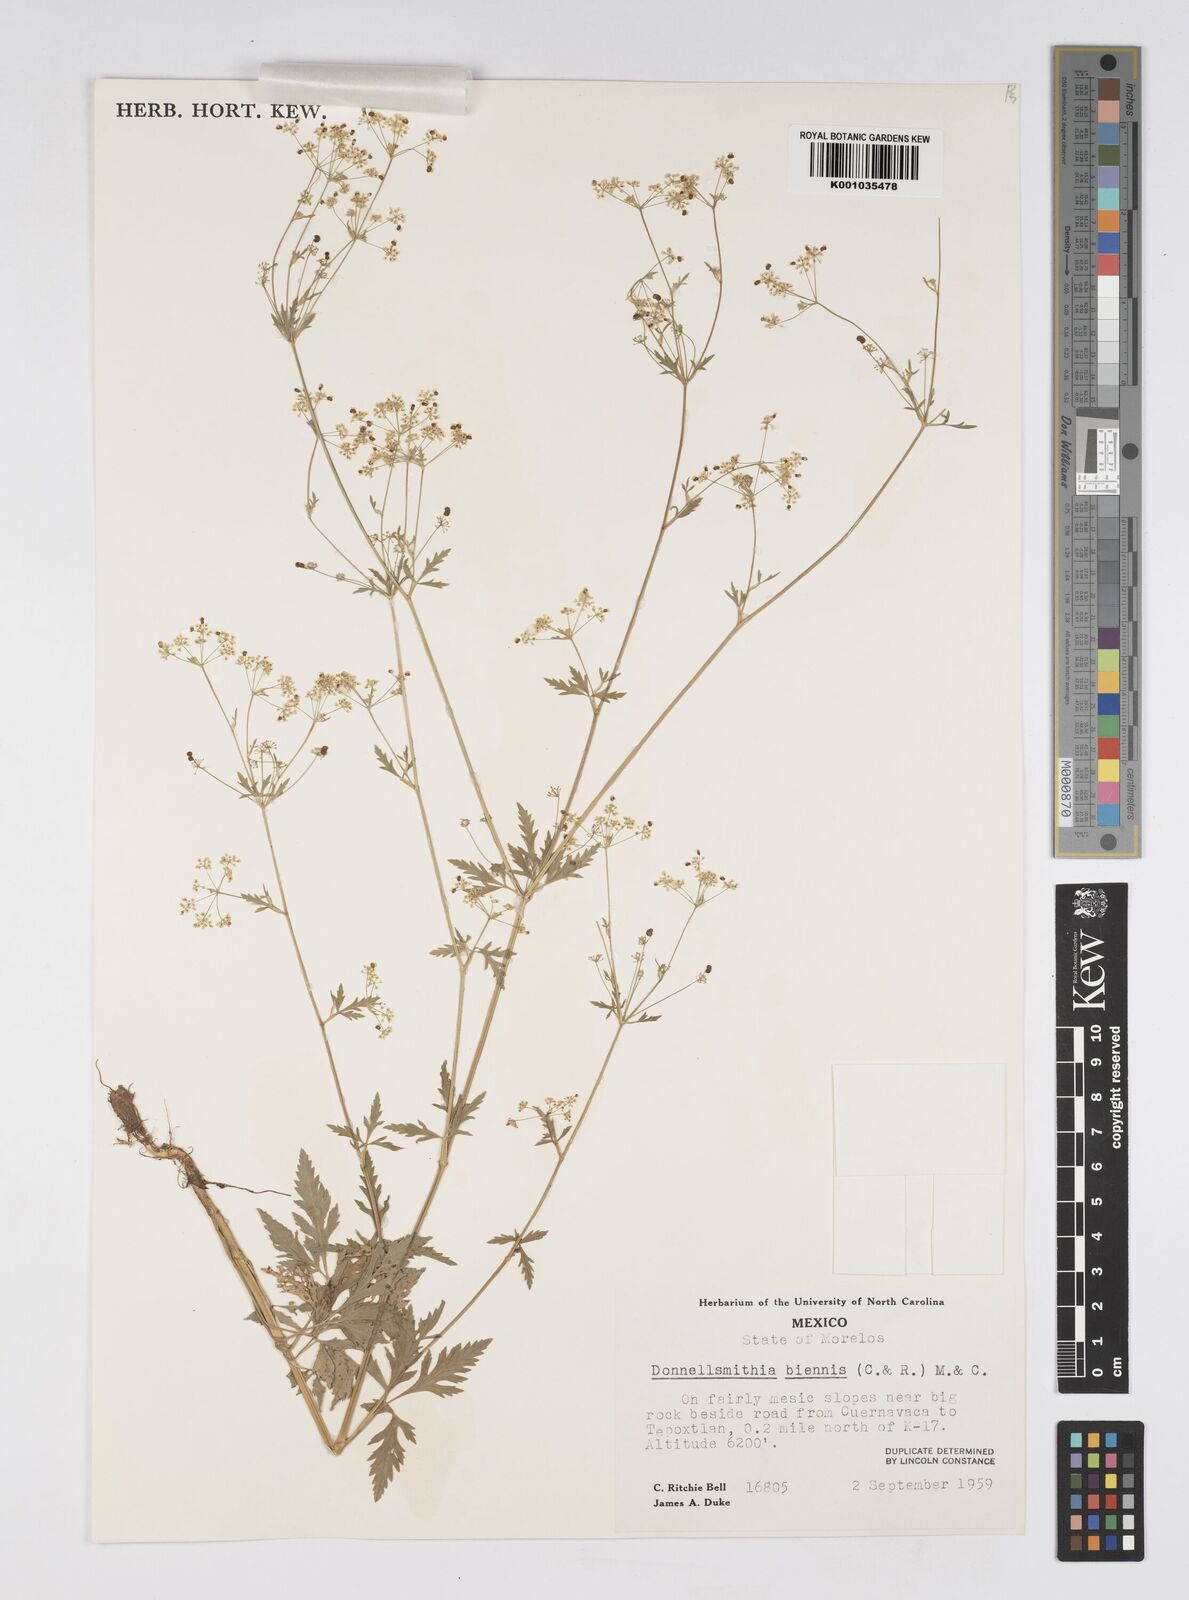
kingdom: Plantae
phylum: Tracheophyta
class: Magnoliopsida
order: Apiales
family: Apiaceae
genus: Donnellsmithia
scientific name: Donnellsmithia biennis
